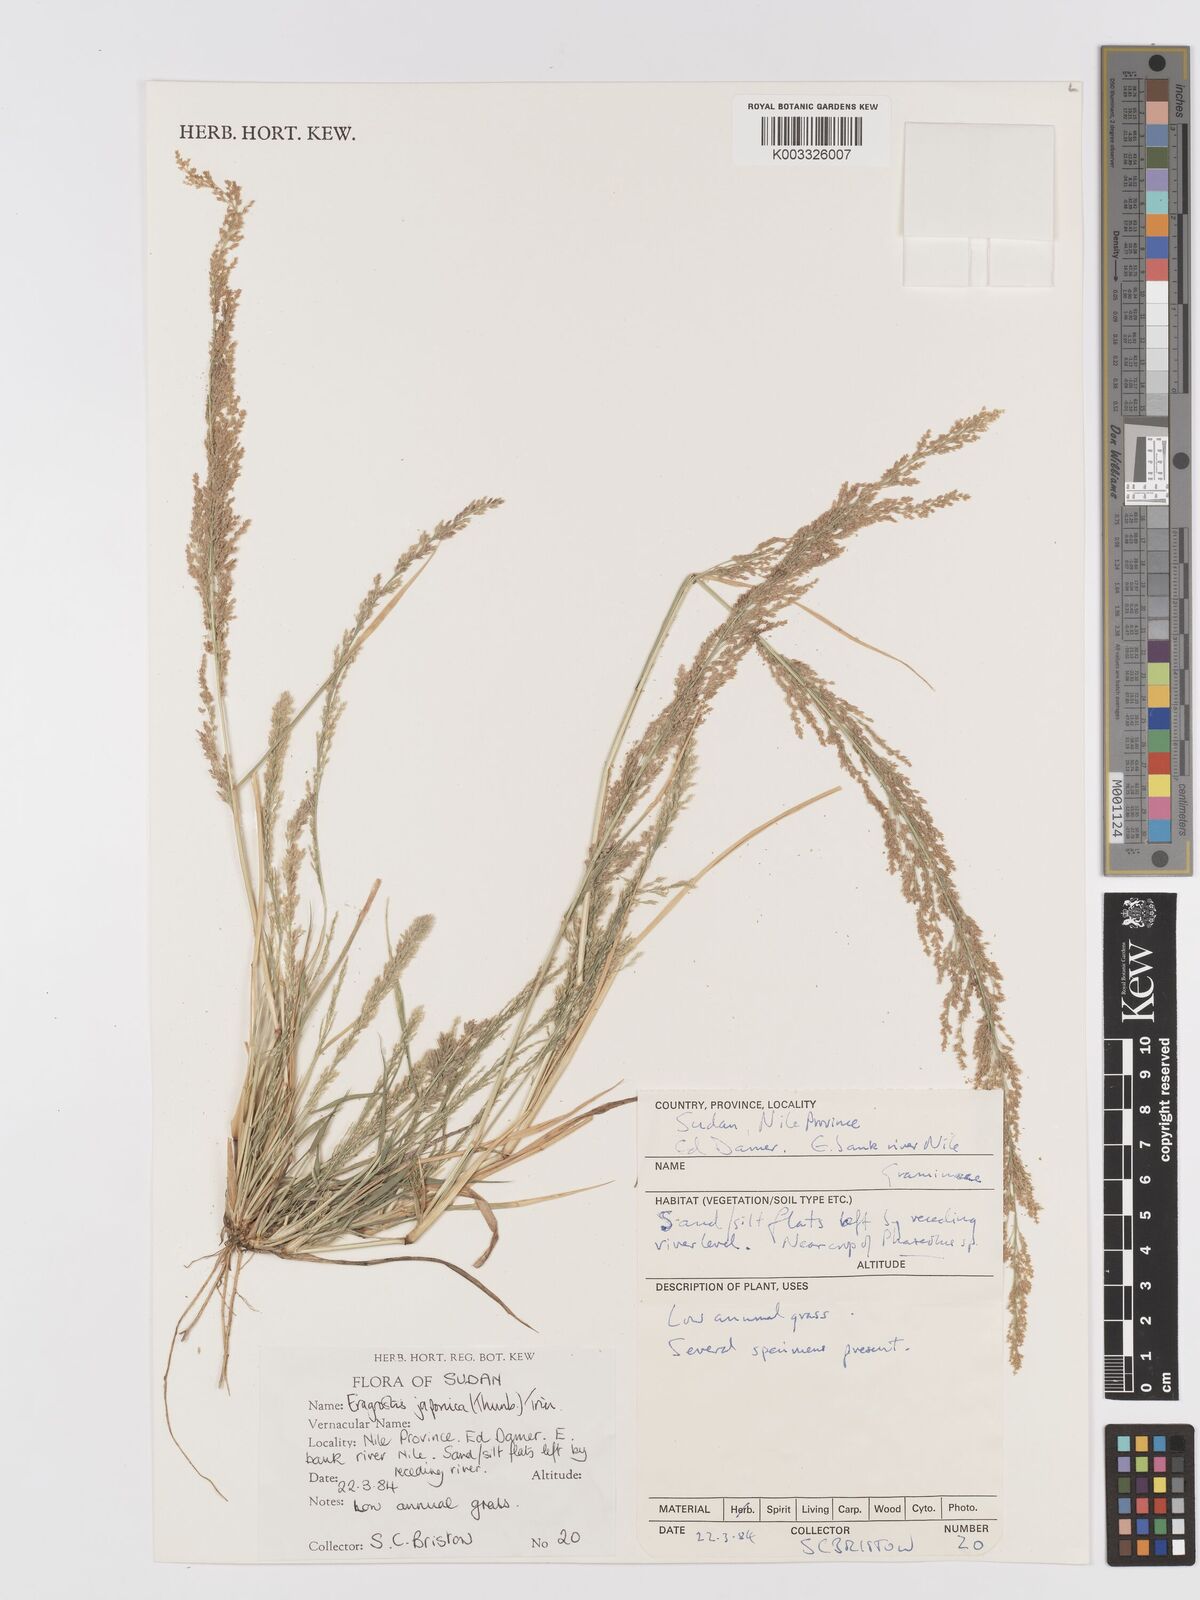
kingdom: Plantae
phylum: Tracheophyta
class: Liliopsida
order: Poales
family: Poaceae
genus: Eragrostis
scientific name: Eragrostis japonica
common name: Pond lovegrass
